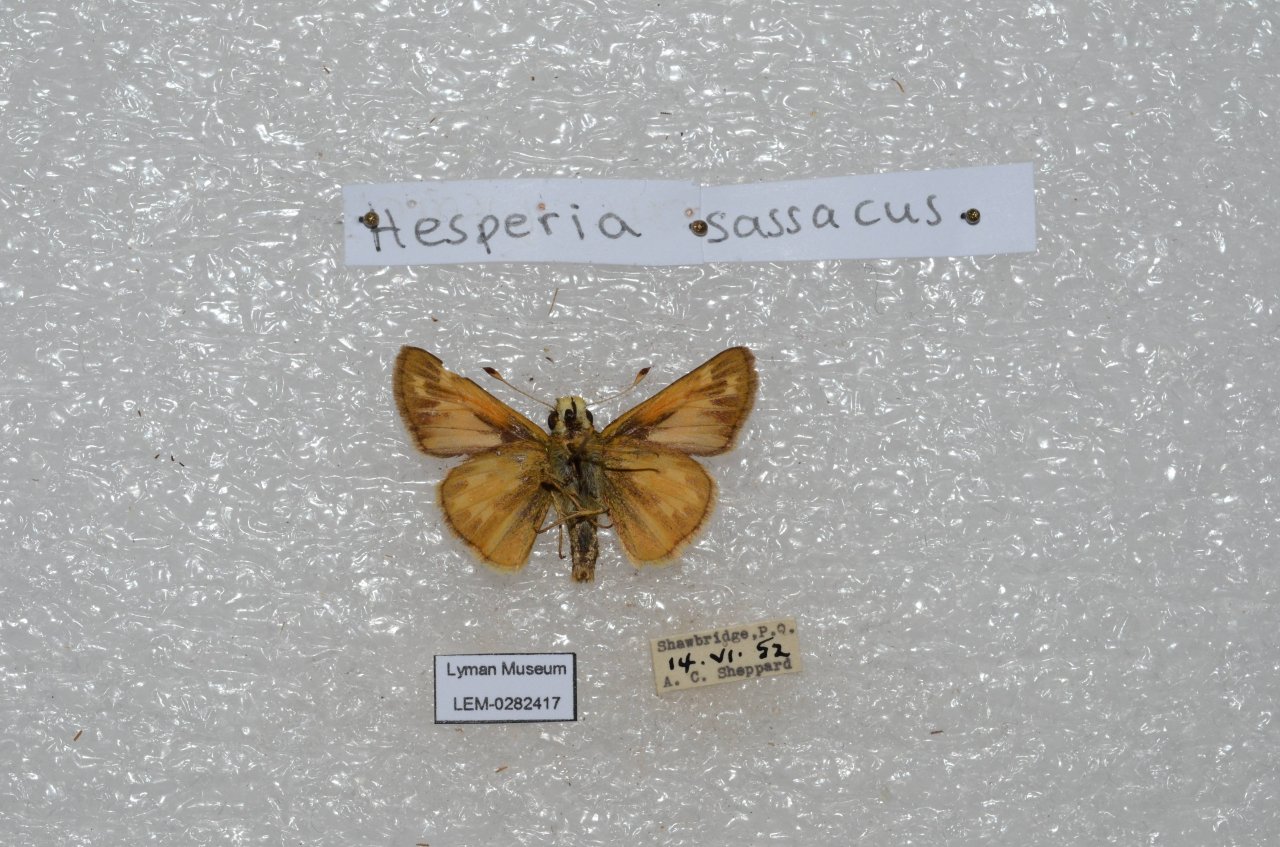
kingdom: Animalia
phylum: Arthropoda
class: Insecta
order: Lepidoptera
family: Hesperiidae
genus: Hesperia
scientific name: Hesperia sassacus
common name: Sassacus Skipper
